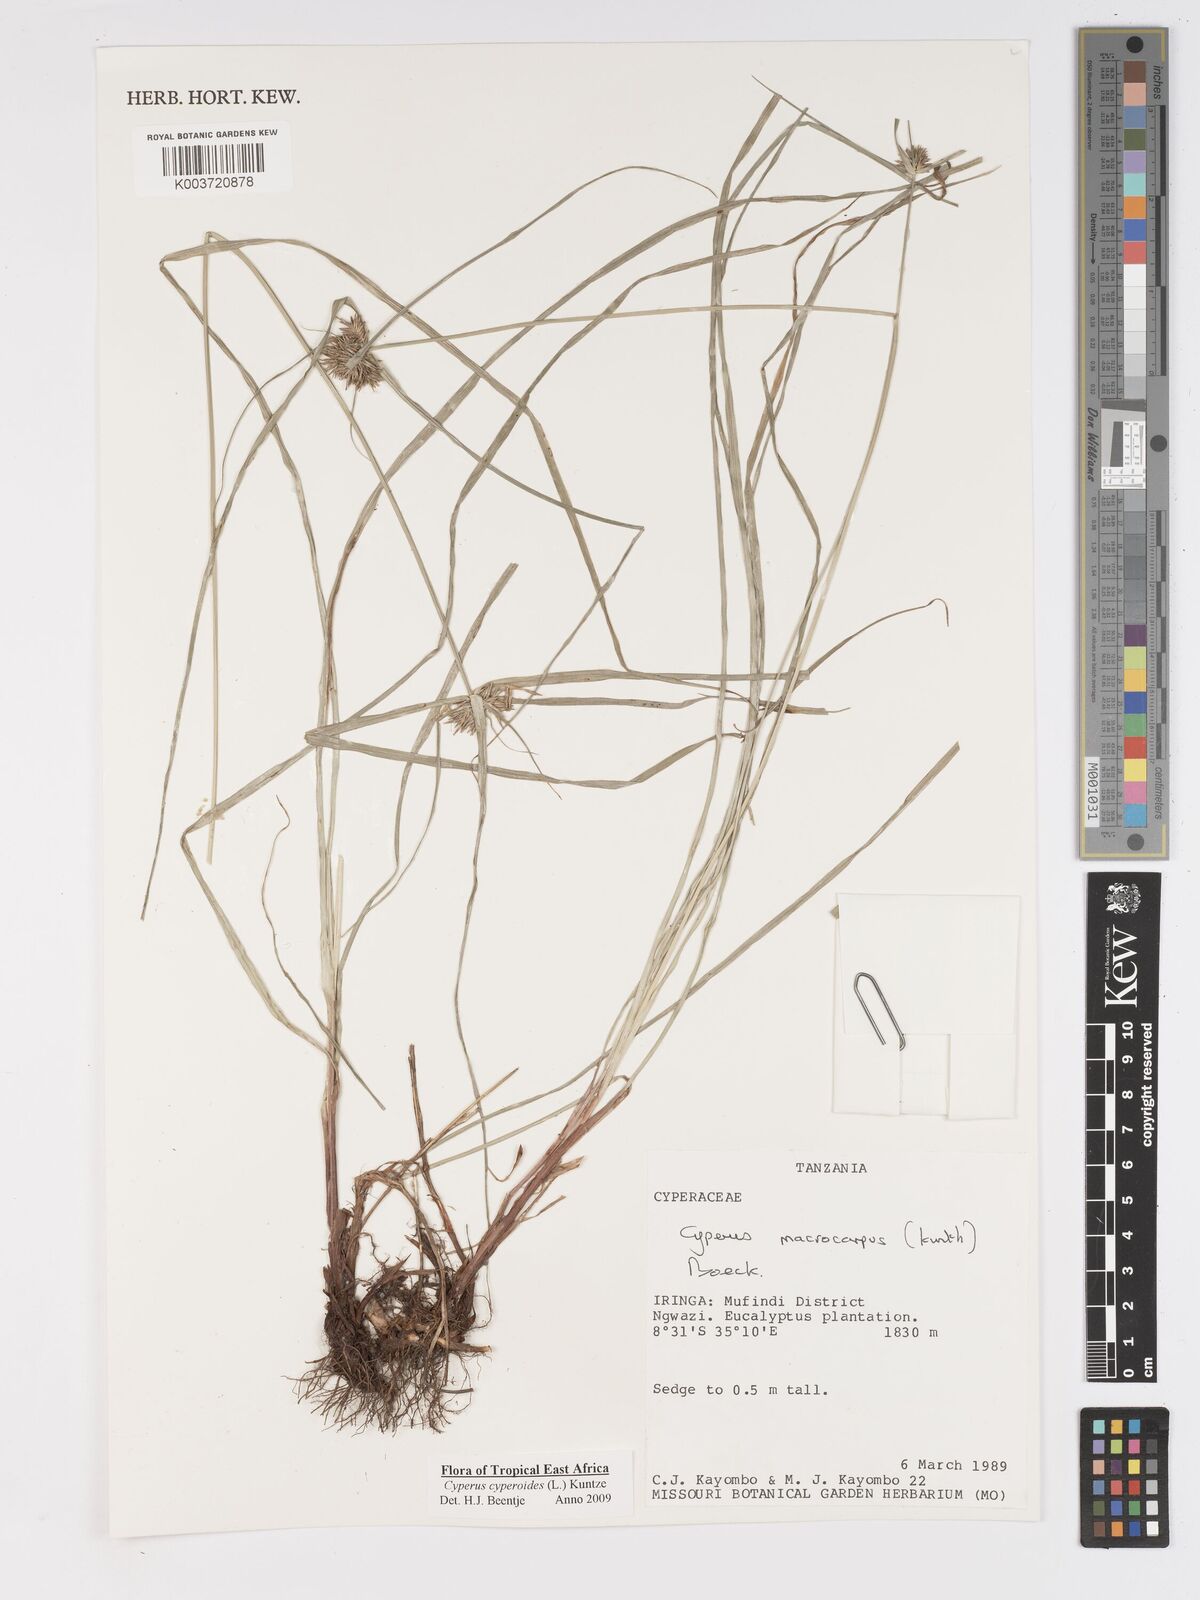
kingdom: Plantae
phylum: Tracheophyta
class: Liliopsida
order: Poales
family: Cyperaceae
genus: Cyperus
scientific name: Cyperus macrocarpus
